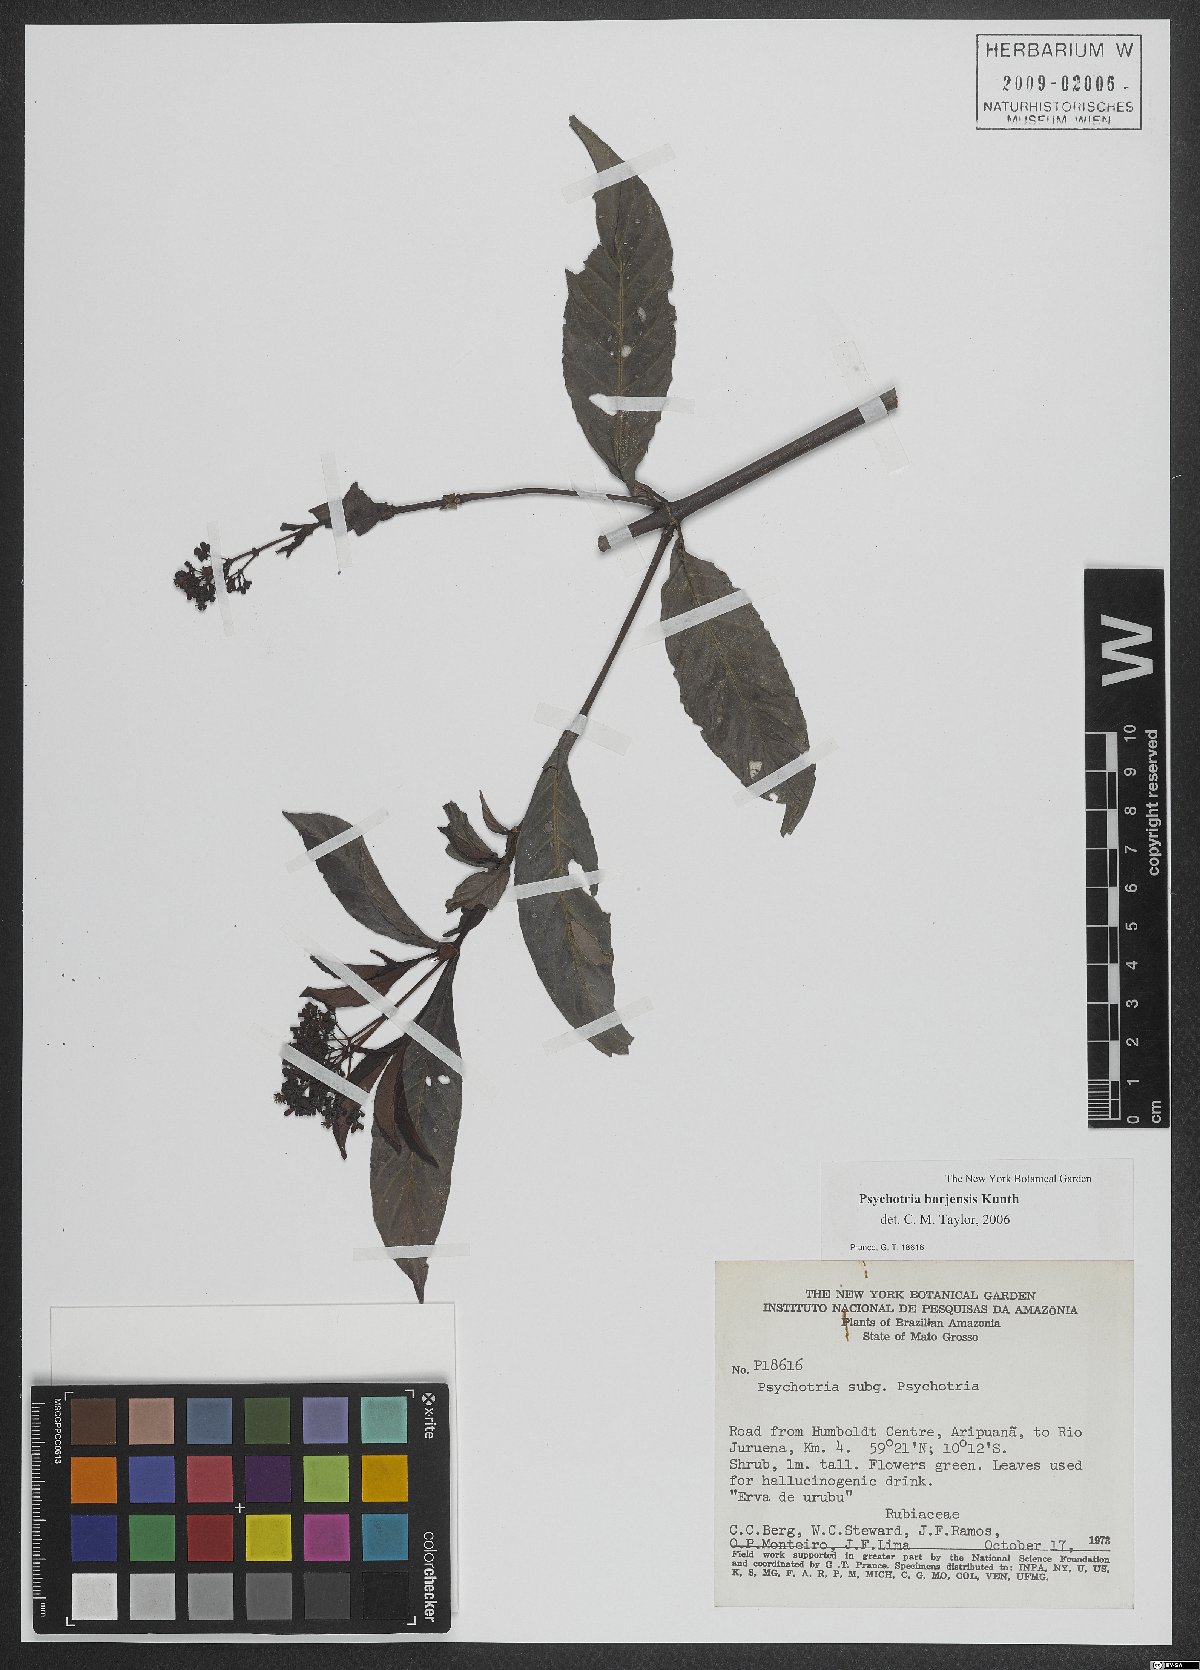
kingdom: Plantae
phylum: Tracheophyta
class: Magnoliopsida
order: Gentianales
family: Rubiaceae
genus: Psychotria
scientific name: Psychotria borjensis
